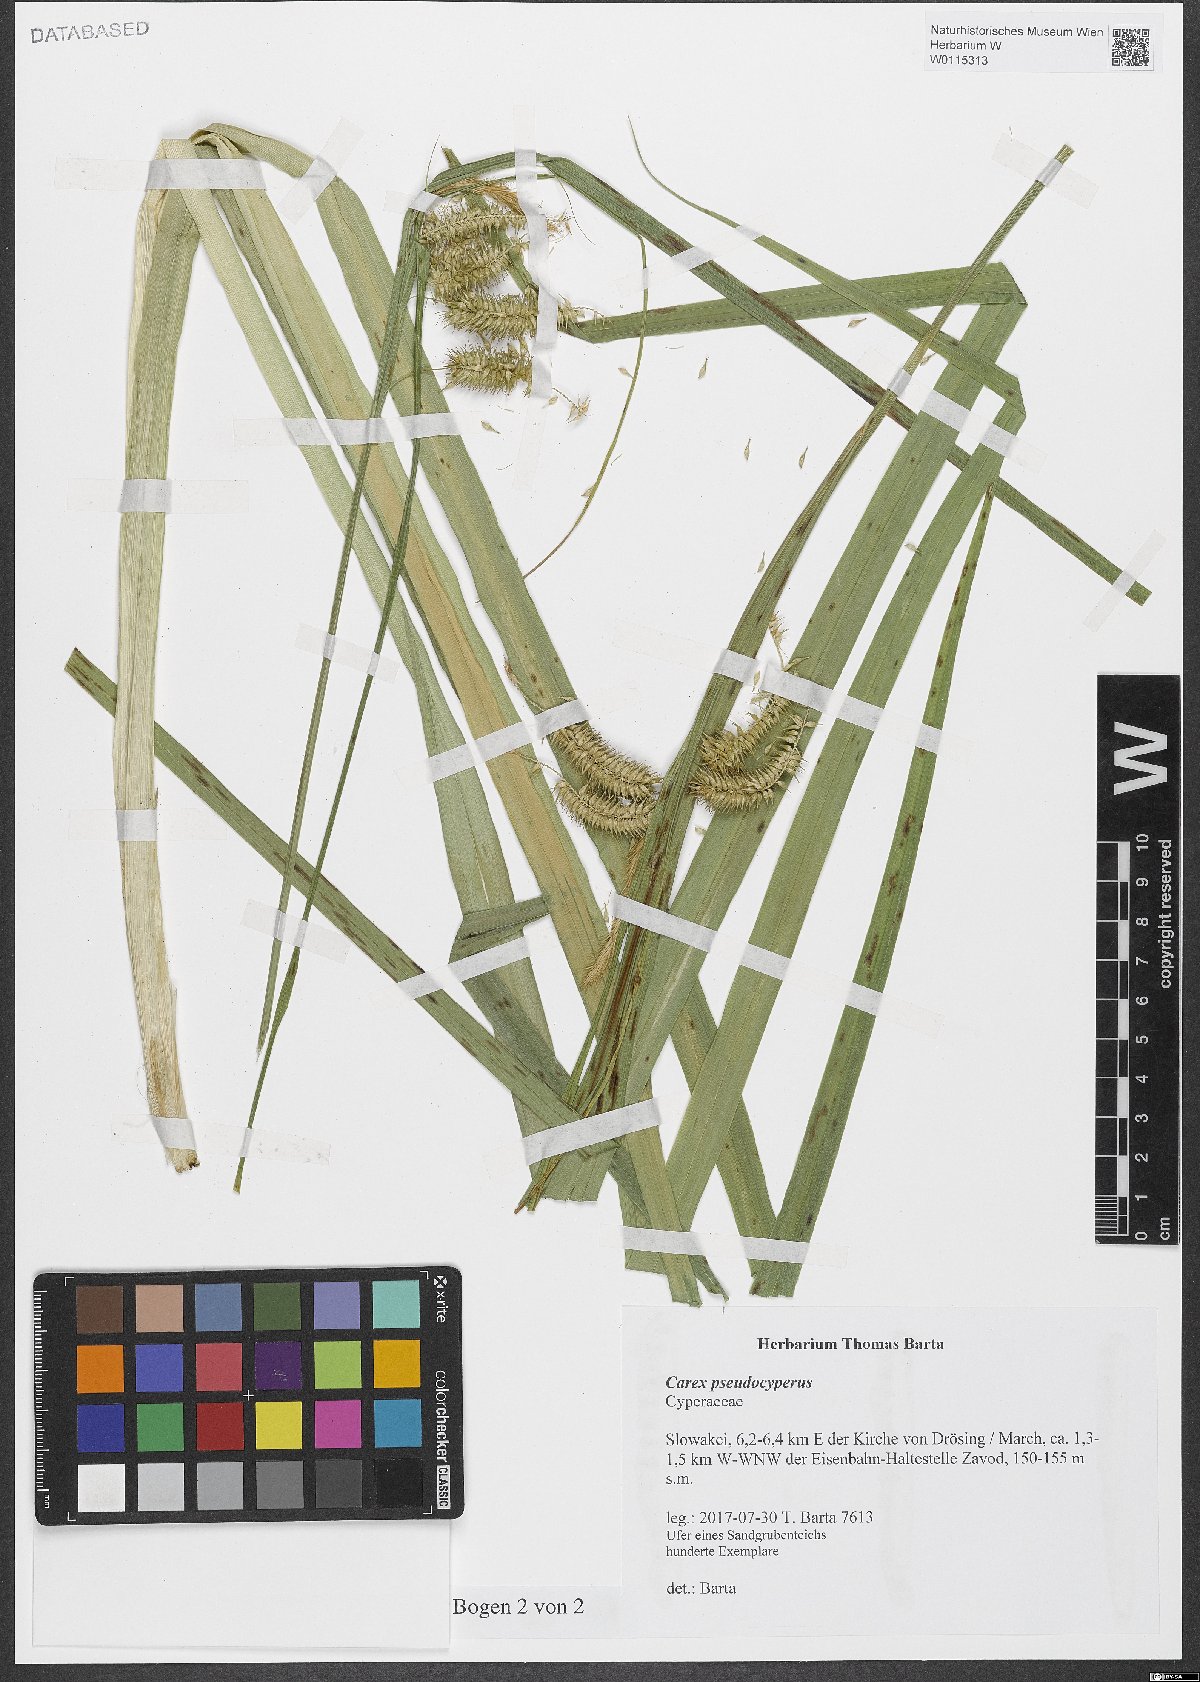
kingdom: Plantae
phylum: Tracheophyta
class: Liliopsida
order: Poales
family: Cyperaceae
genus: Carex
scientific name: Carex pseudocyperus
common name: Cyperus sedge
